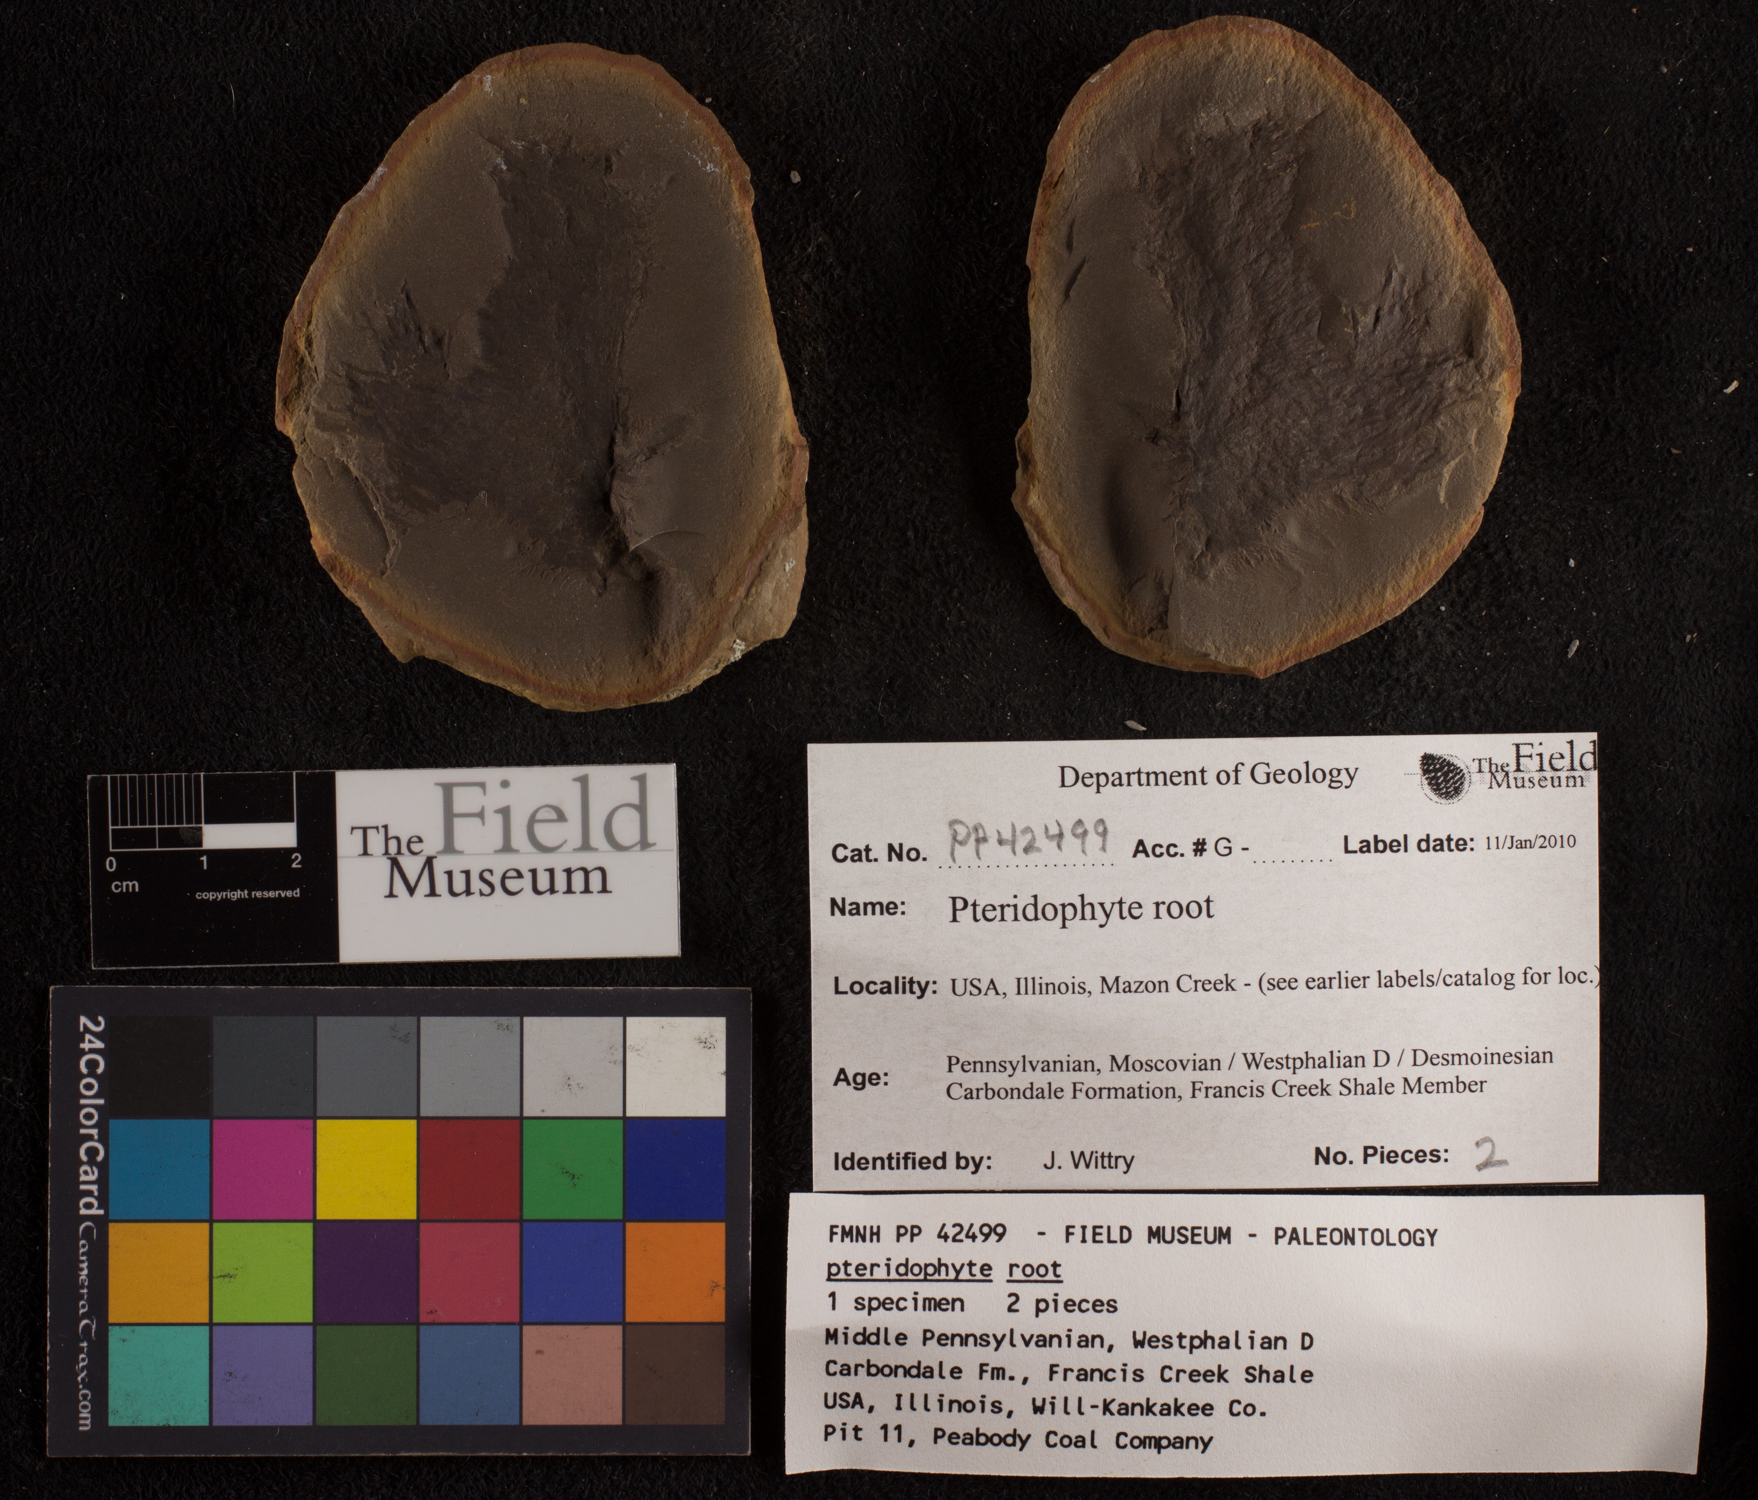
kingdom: Plantae
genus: Rhacophyllum
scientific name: Rhacophyllum
